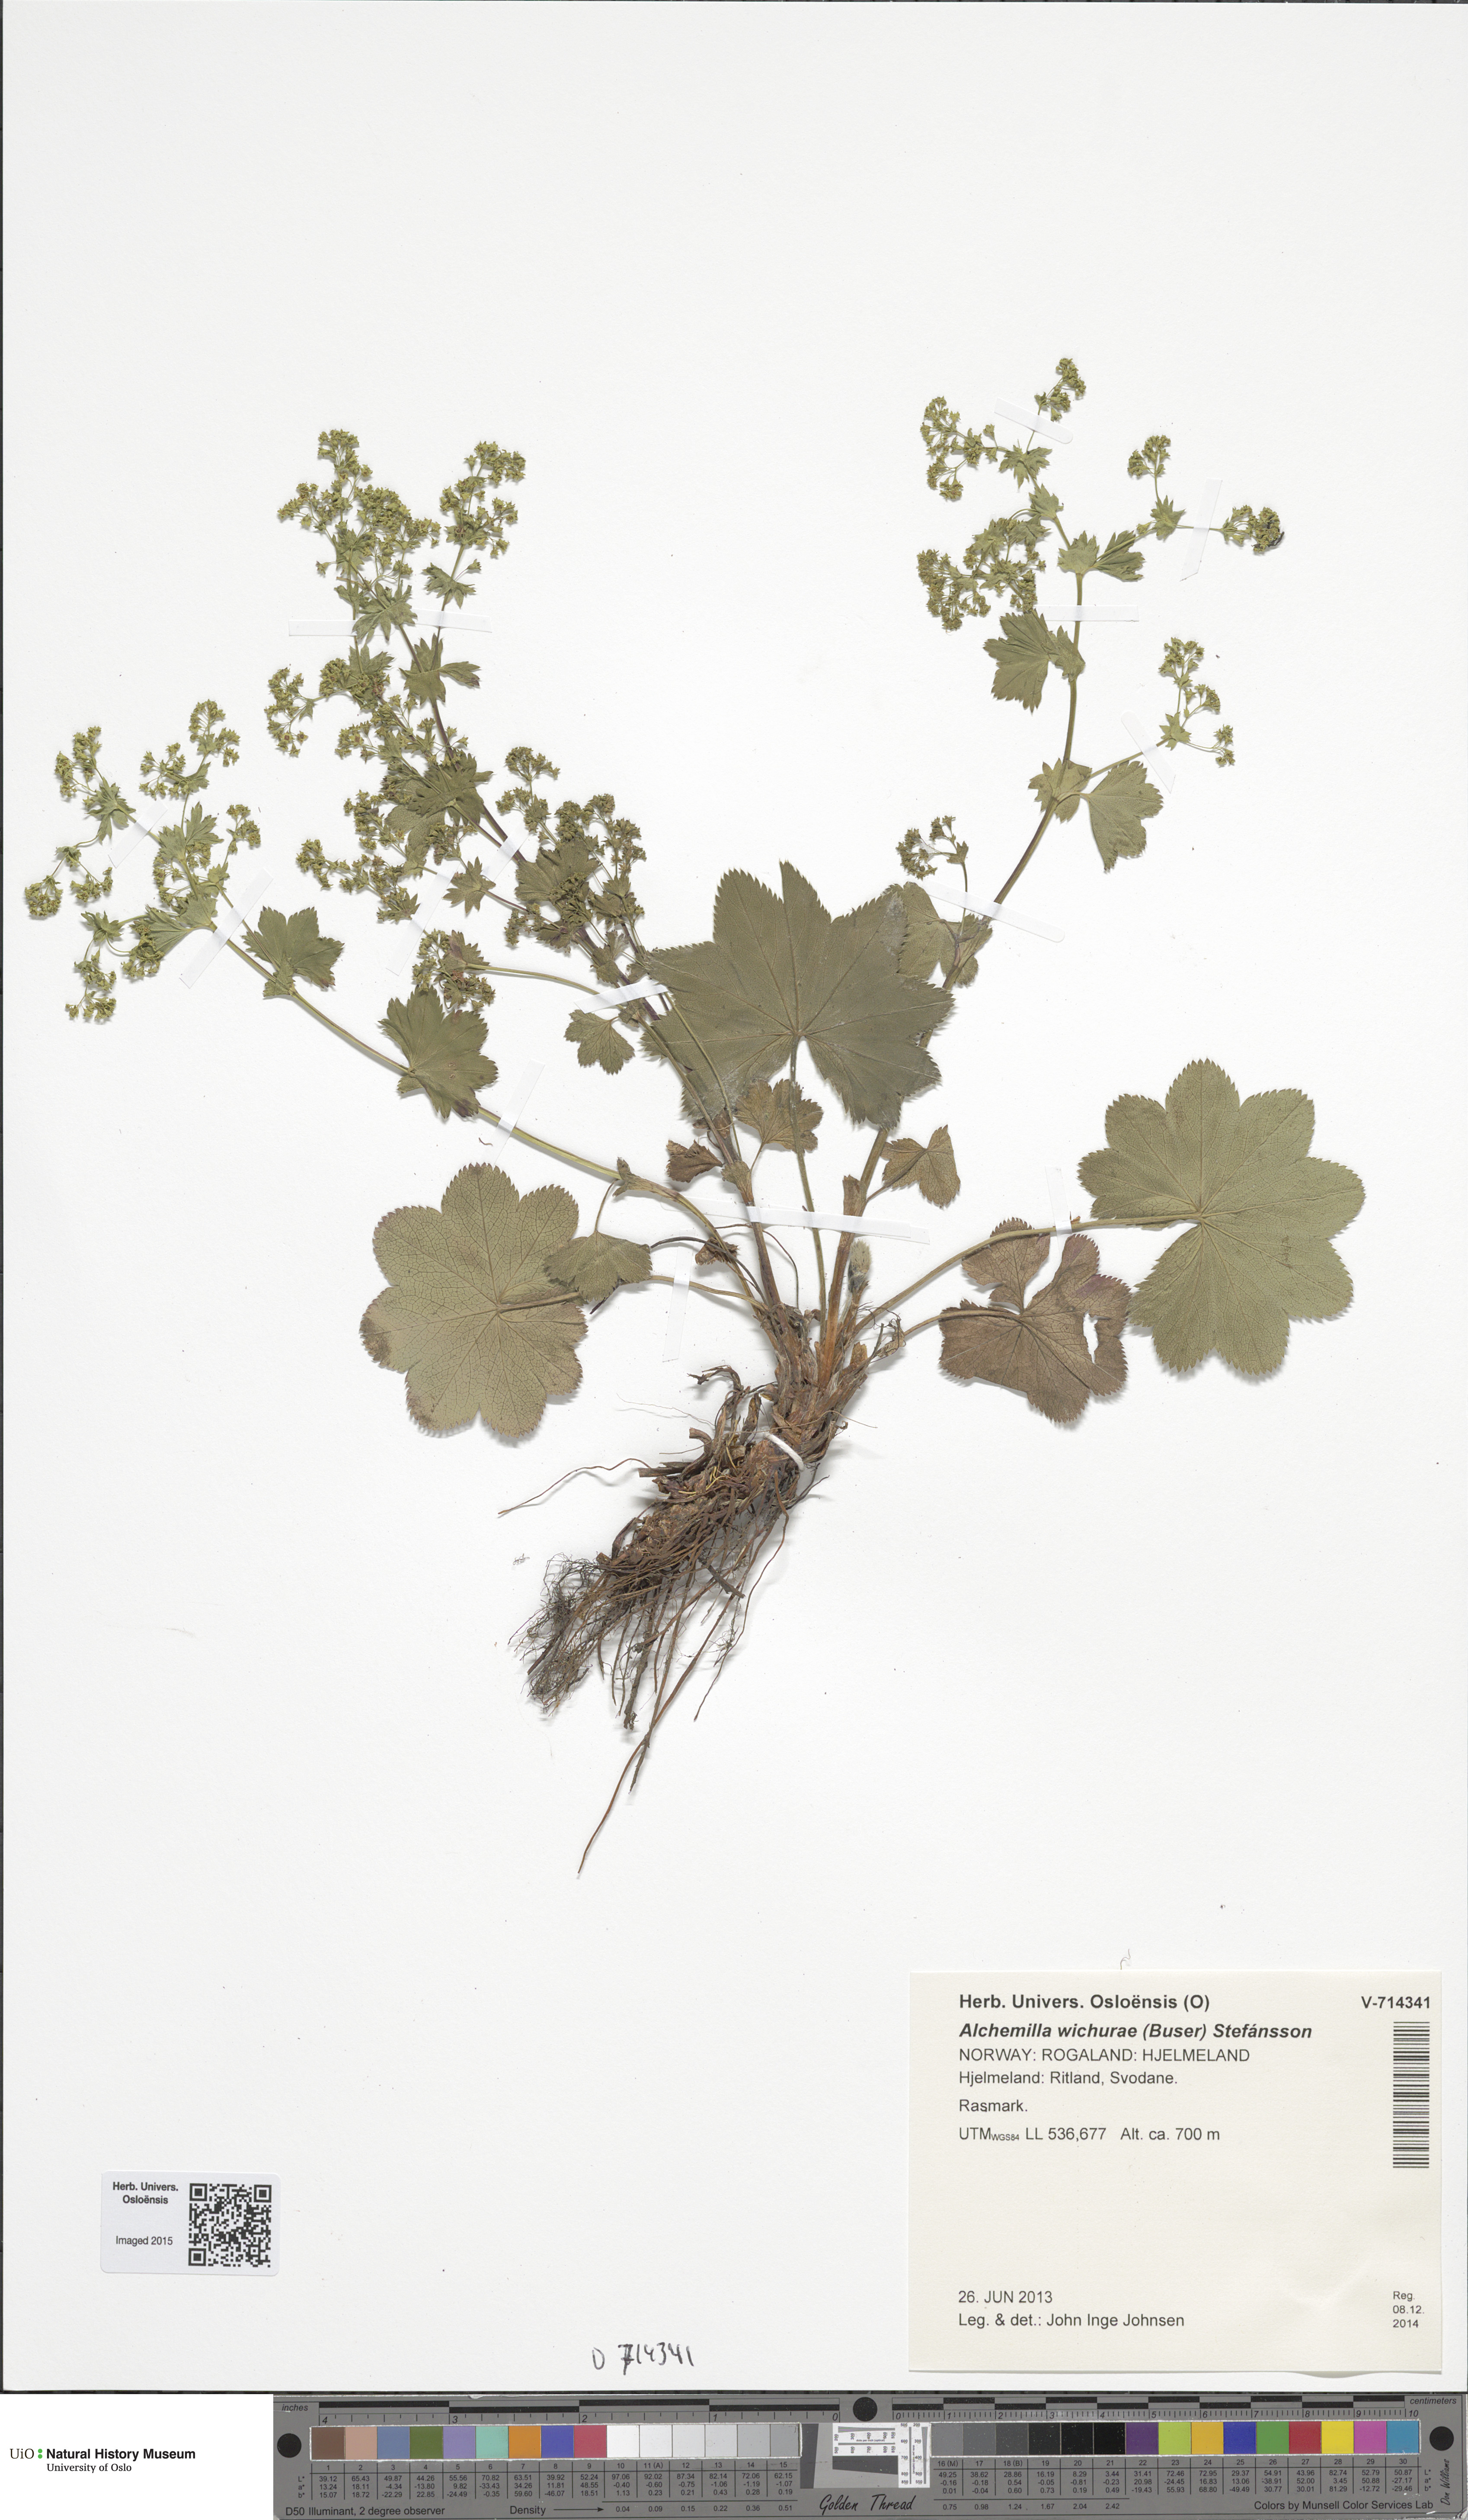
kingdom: Plantae
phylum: Tracheophyta
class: Magnoliopsida
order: Rosales
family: Rosaceae
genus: Alchemilla
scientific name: Alchemilla wichurae
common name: Rock lady's mantle
